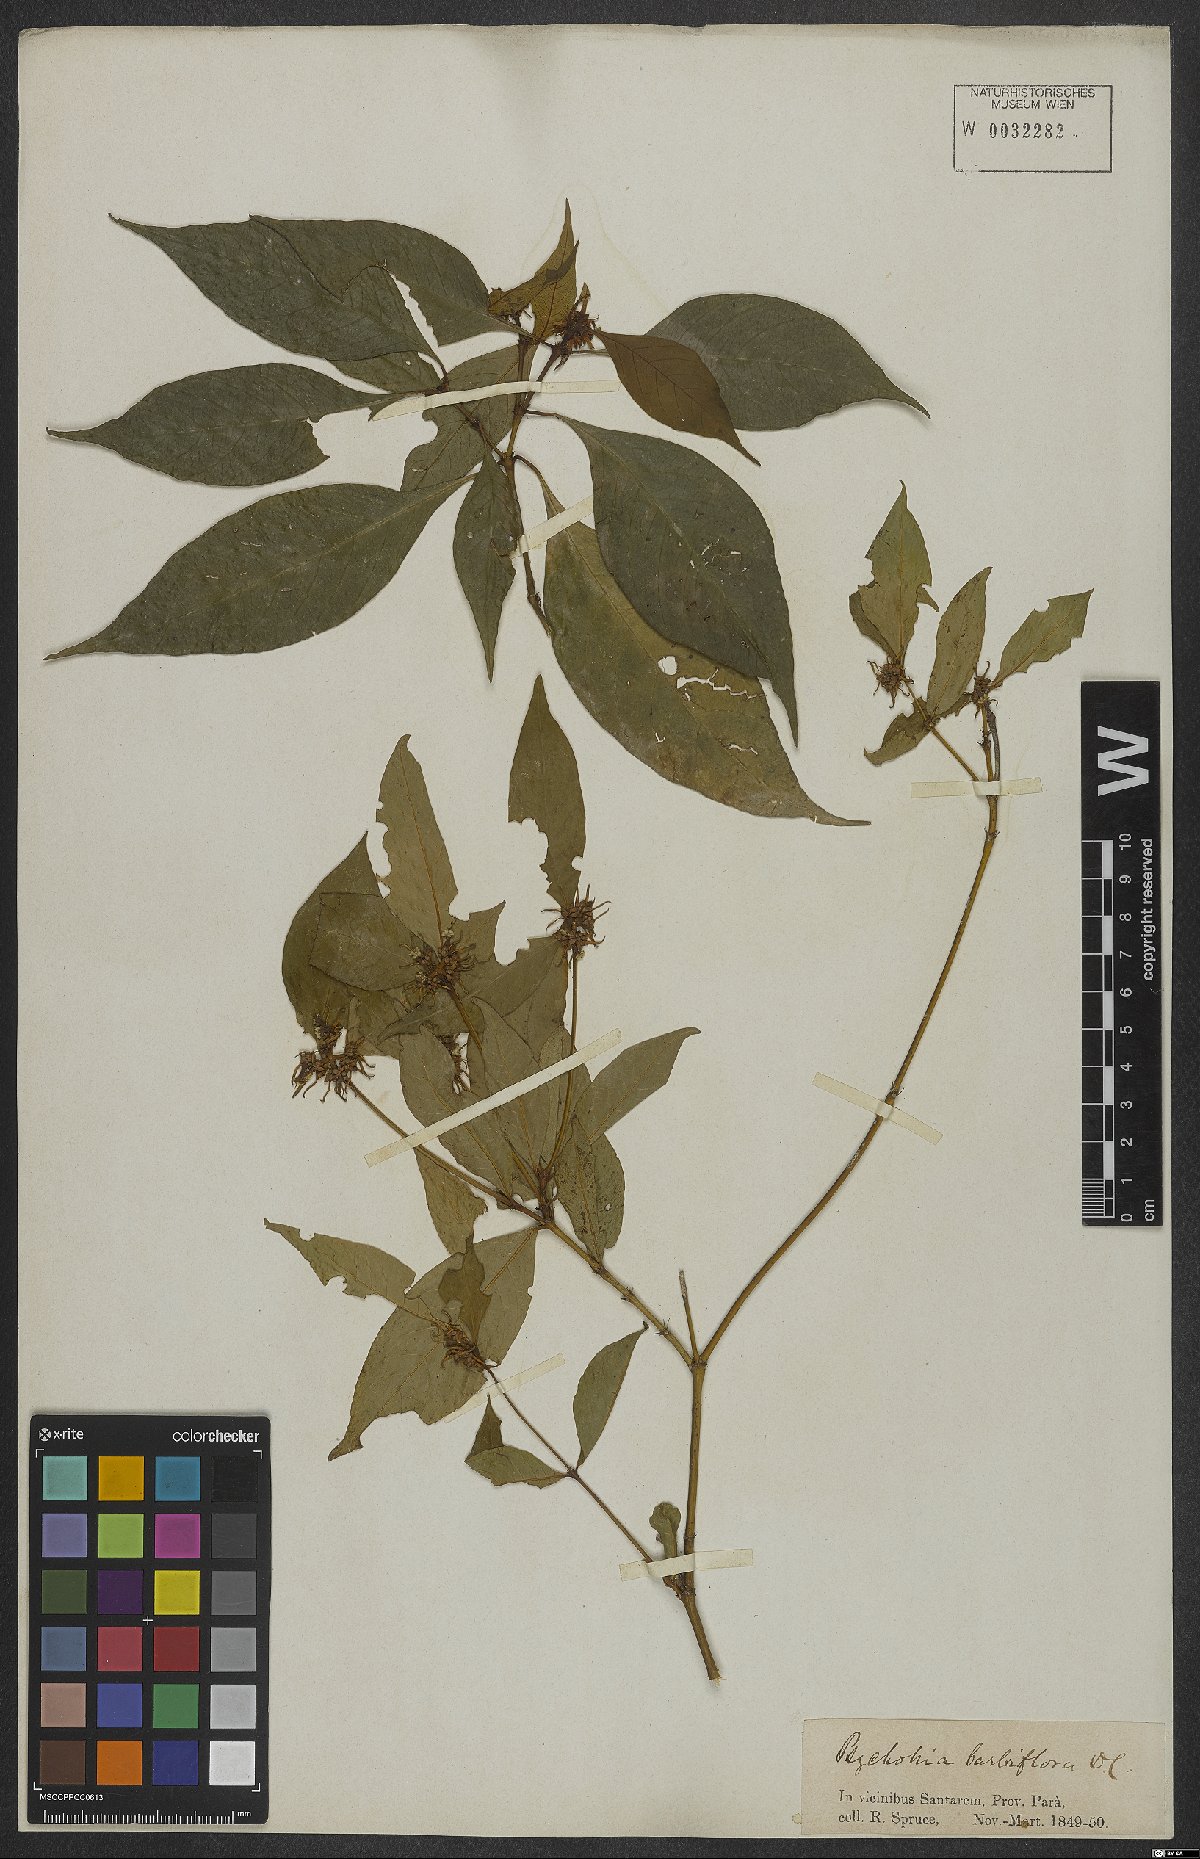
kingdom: Plantae
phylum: Tracheophyta
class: Magnoliopsida
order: Gentianales
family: Rubiaceae
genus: Palicourea
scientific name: Palicourea hoffmannseggiana
